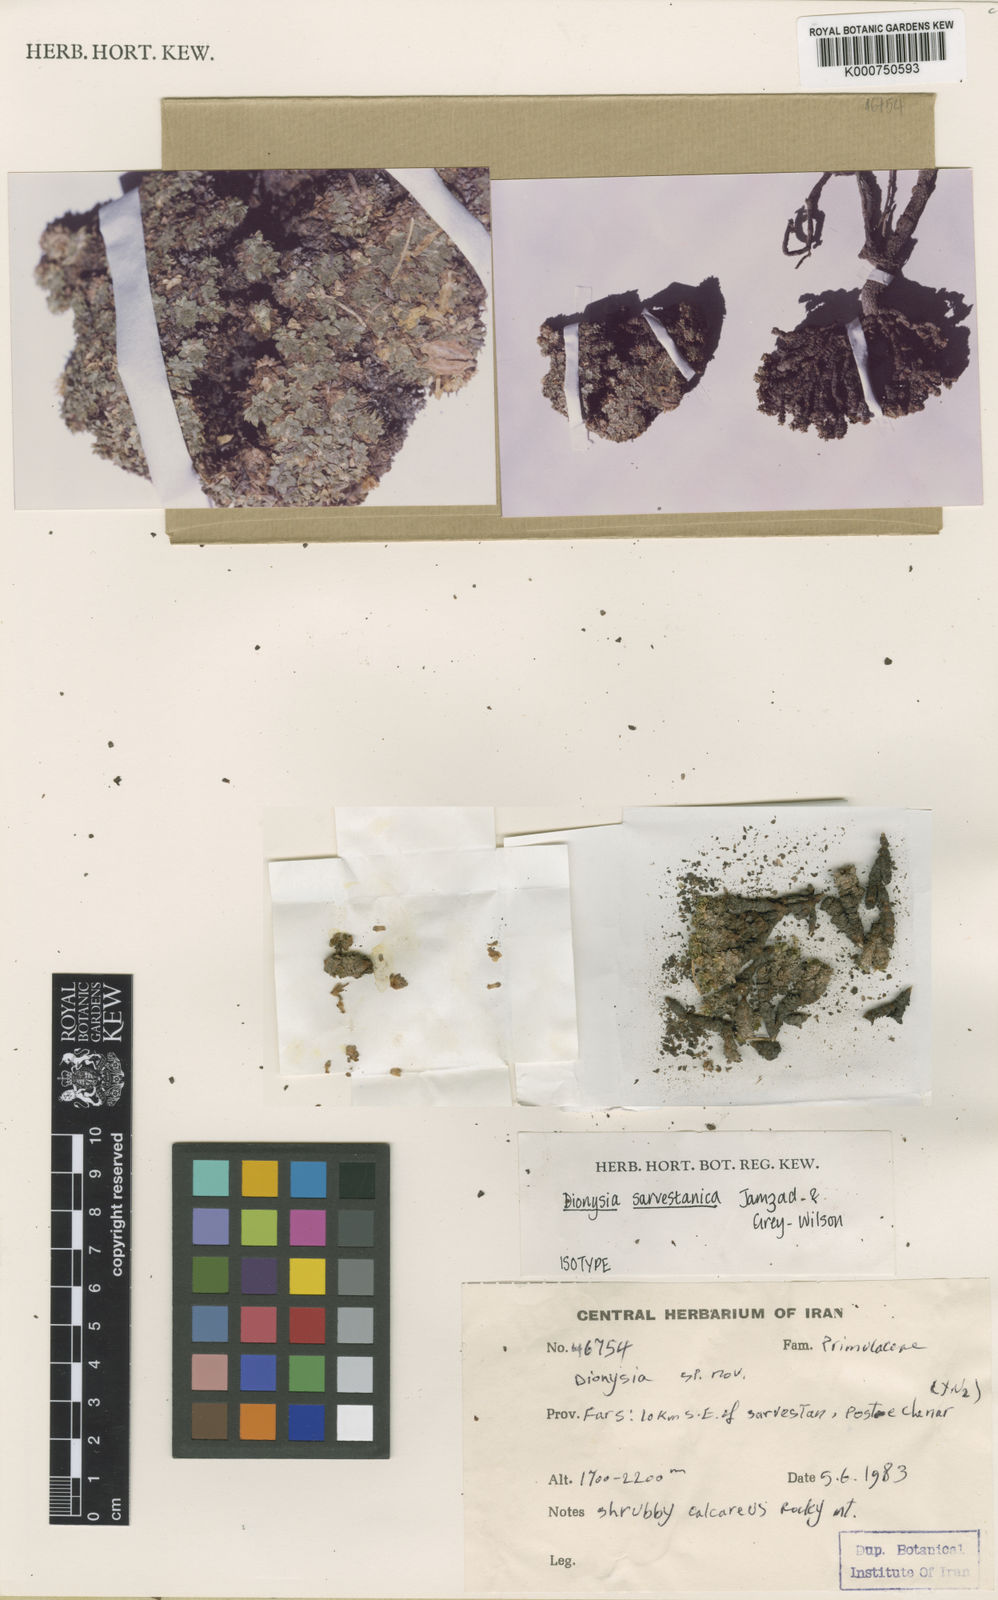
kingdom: Plantae
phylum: Tracheophyta
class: Magnoliopsida
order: Ericales
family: Primulaceae
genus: Dionysia
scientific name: Dionysia sarvestanica
